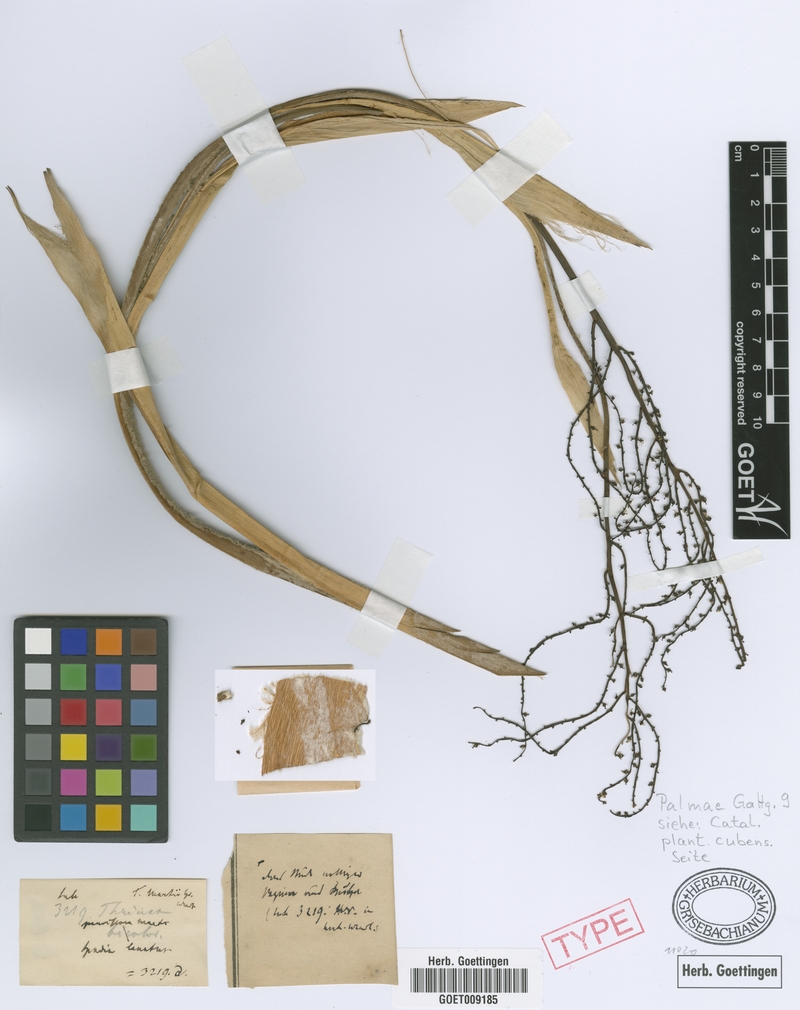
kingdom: Plantae
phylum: Tracheophyta
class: Liliopsida
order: Arecales
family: Arecaceae
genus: Thrinax
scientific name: Thrinax radiata
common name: Florida thatch
